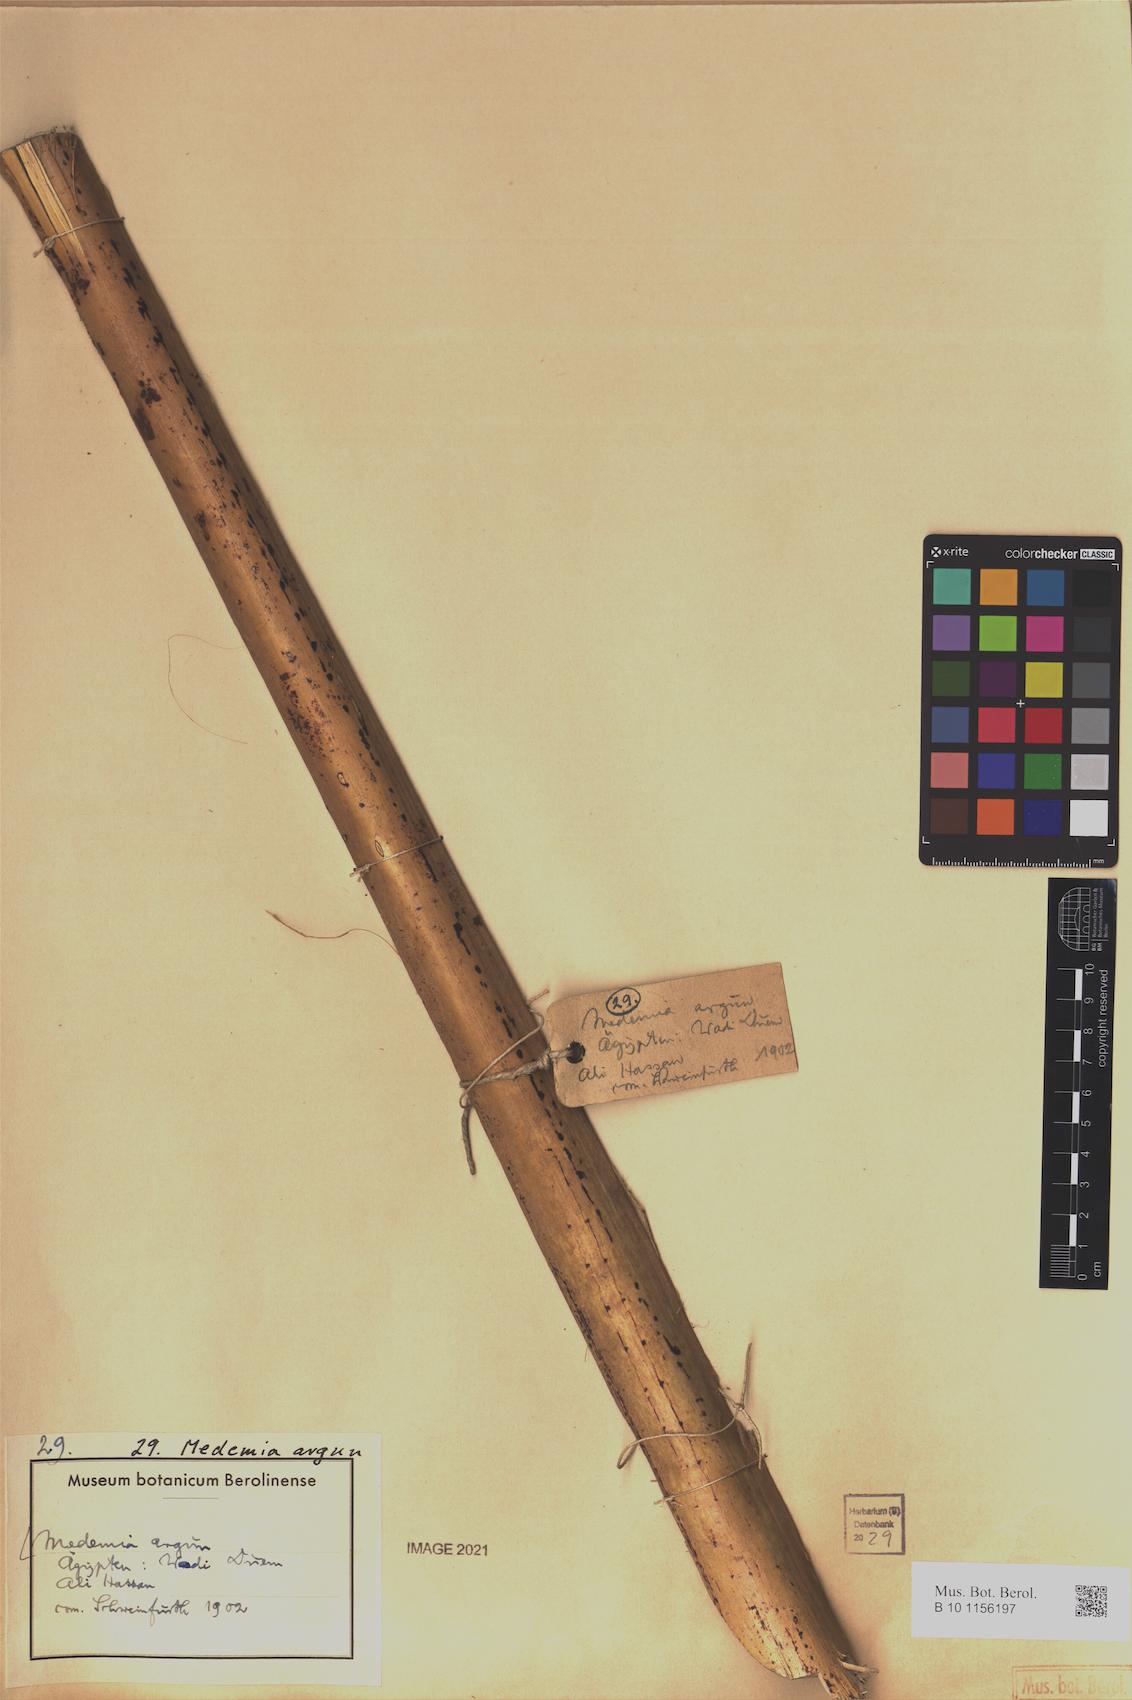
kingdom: Plantae
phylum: Tracheophyta
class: Liliopsida
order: Arecales
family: Arecaceae
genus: Medemia
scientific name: Medemia argun
